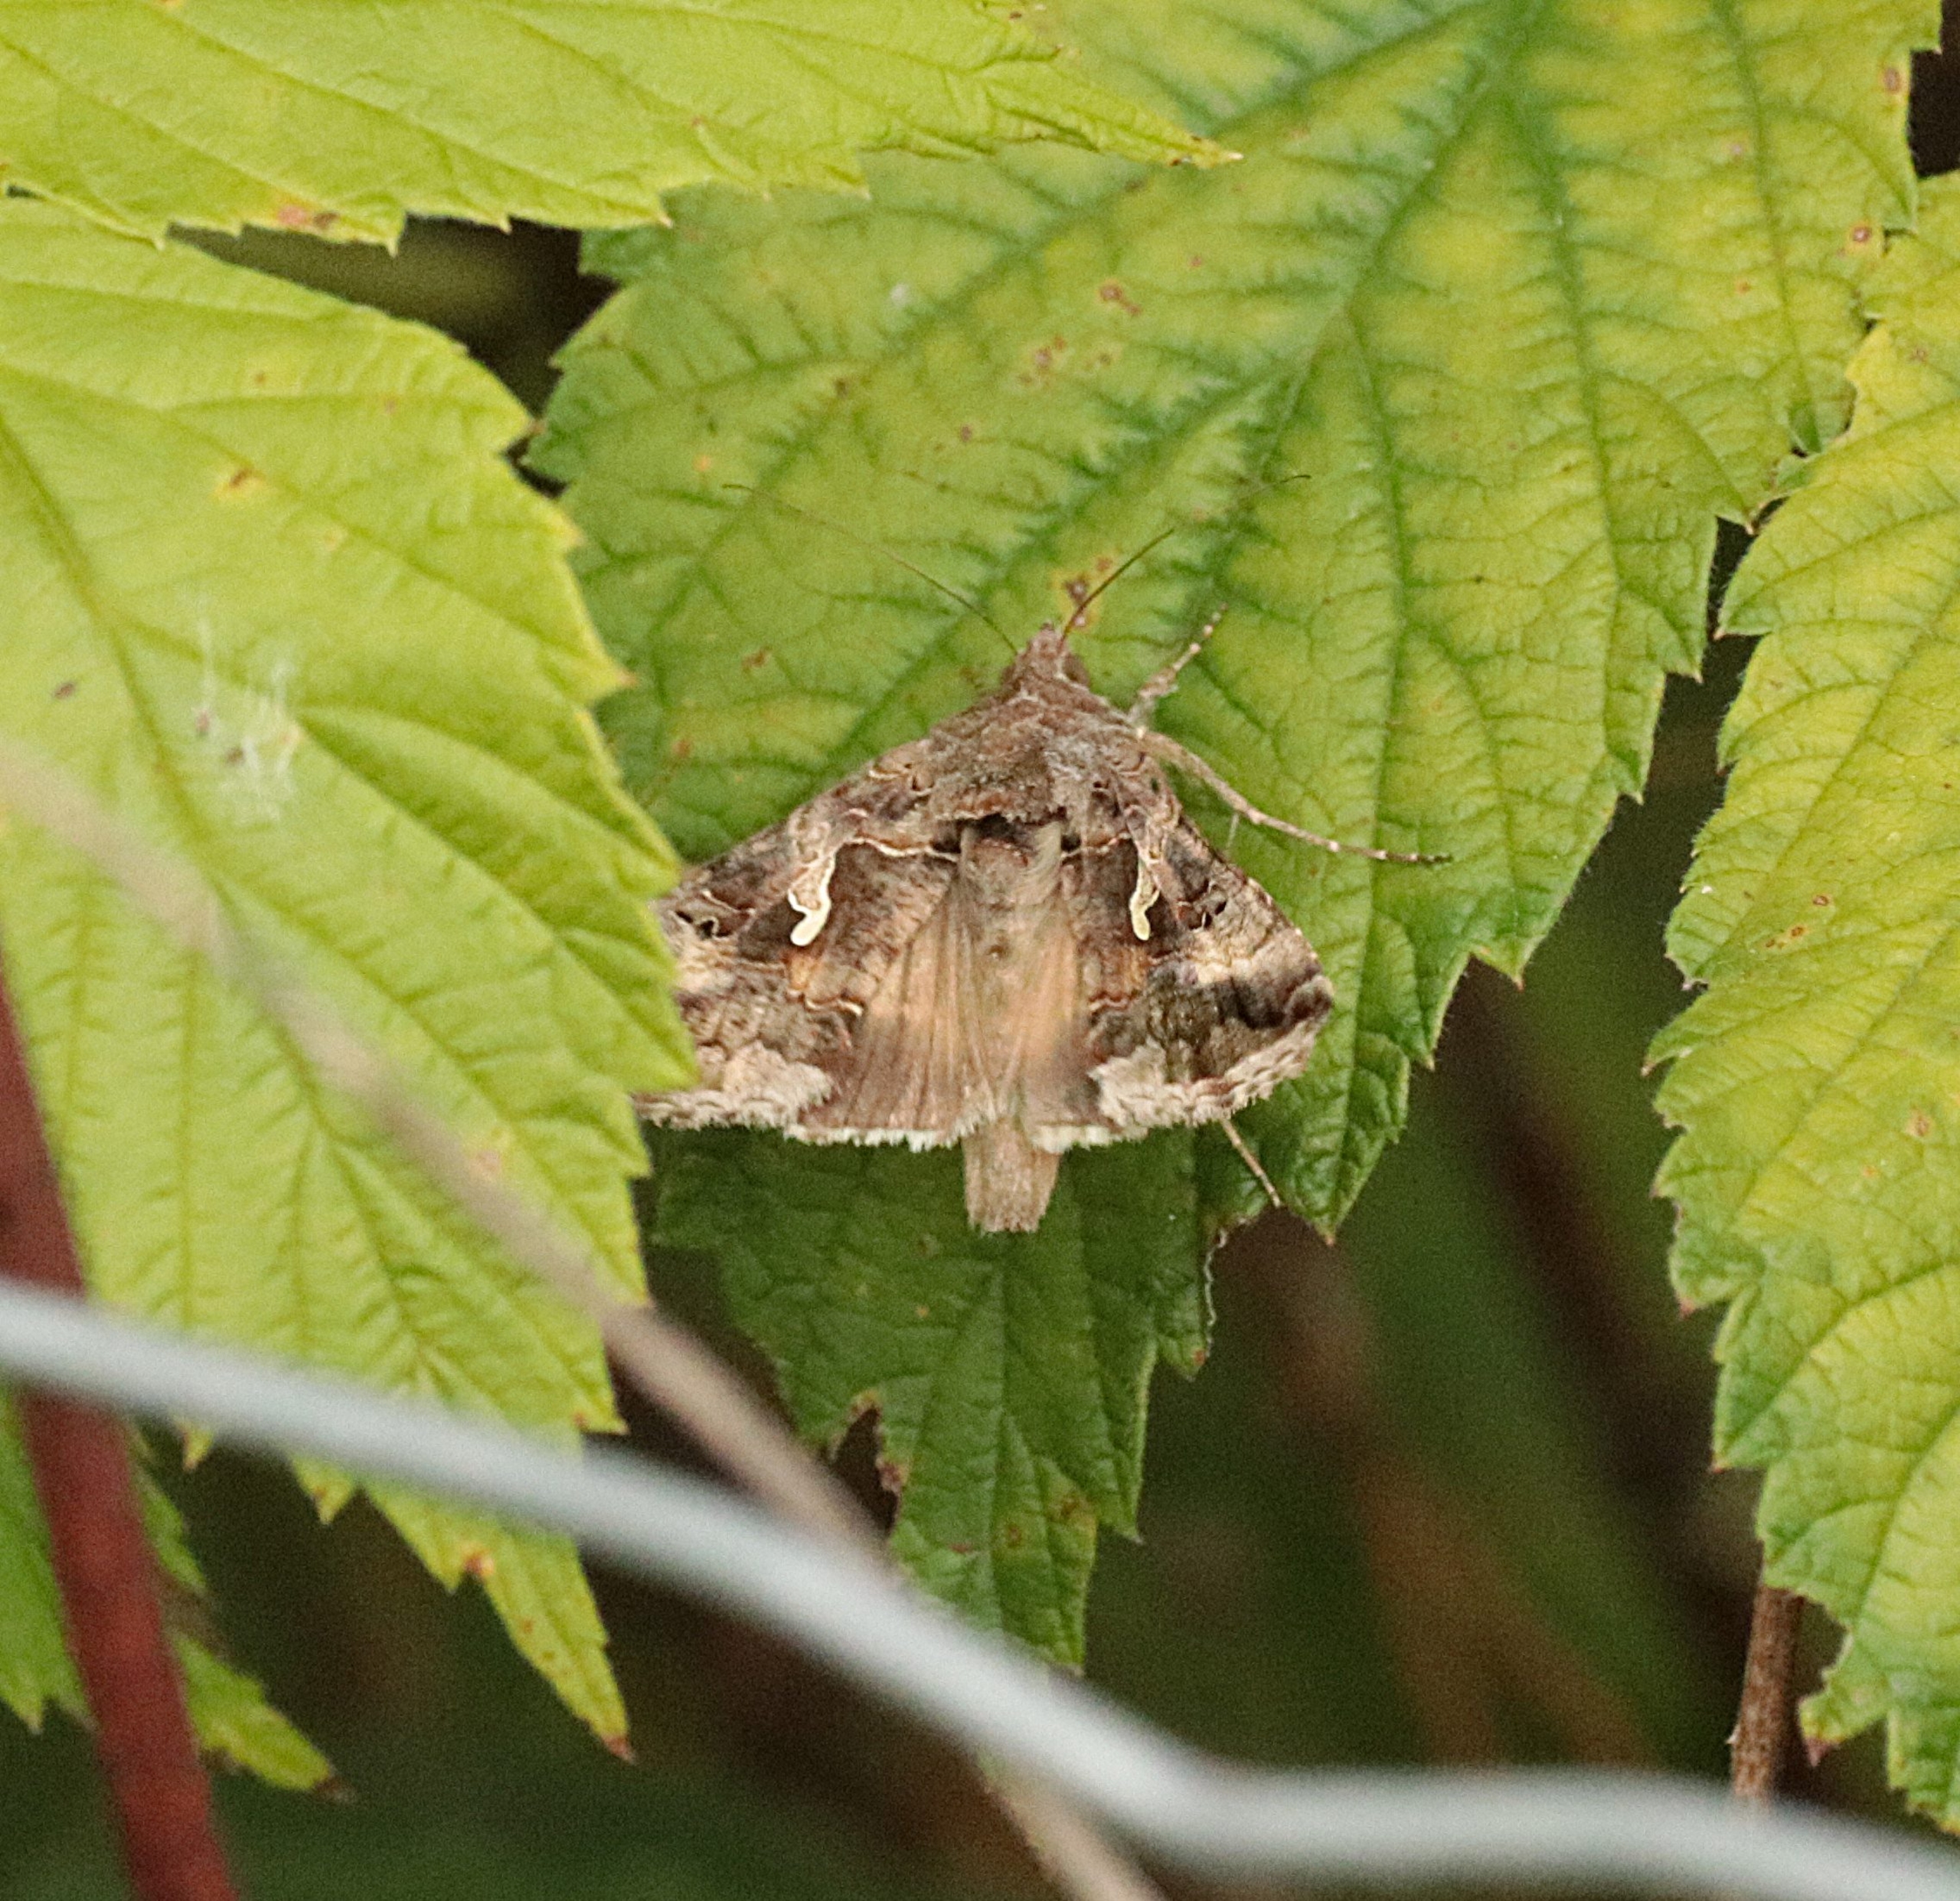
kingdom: Animalia
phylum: Arthropoda
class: Insecta
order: Lepidoptera
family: Noctuidae
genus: Autographa
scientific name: Autographa gamma
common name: Gammaugle
